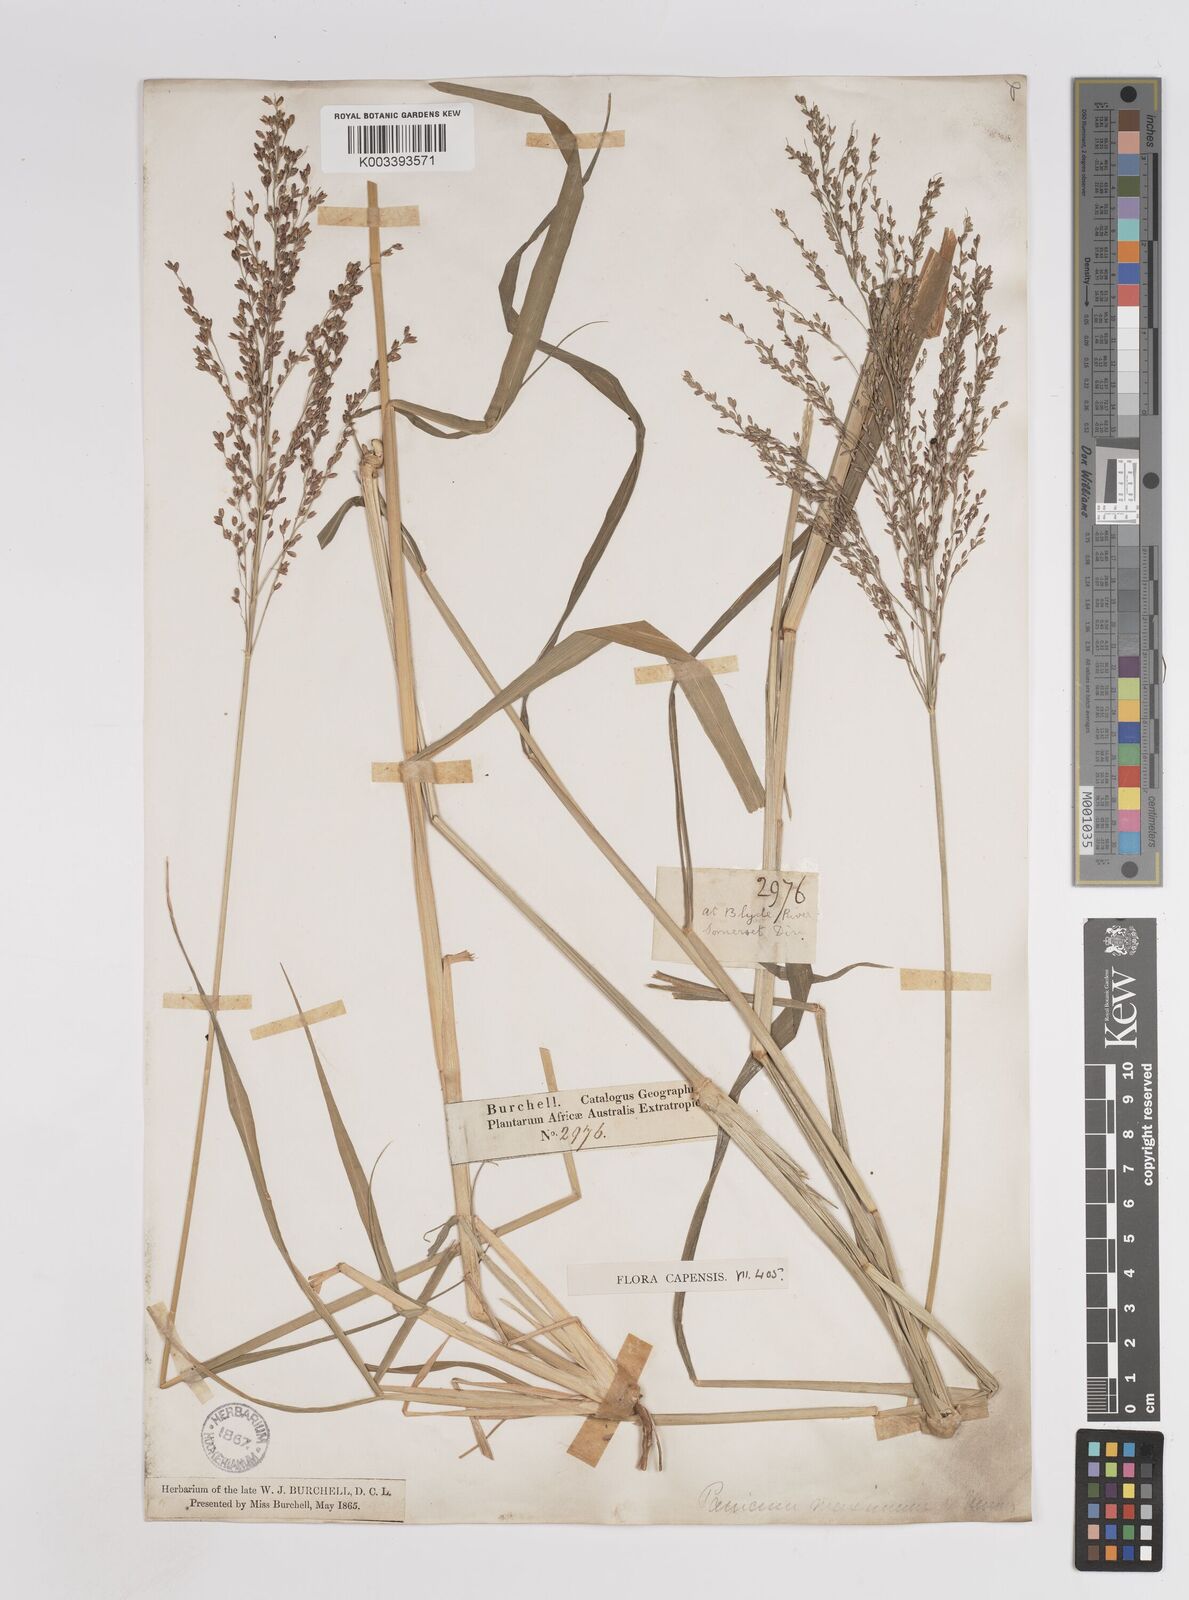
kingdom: Plantae
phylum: Tracheophyta
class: Liliopsida
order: Poales
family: Poaceae
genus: Megathyrsus
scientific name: Megathyrsus maximus
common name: Guineagrass
